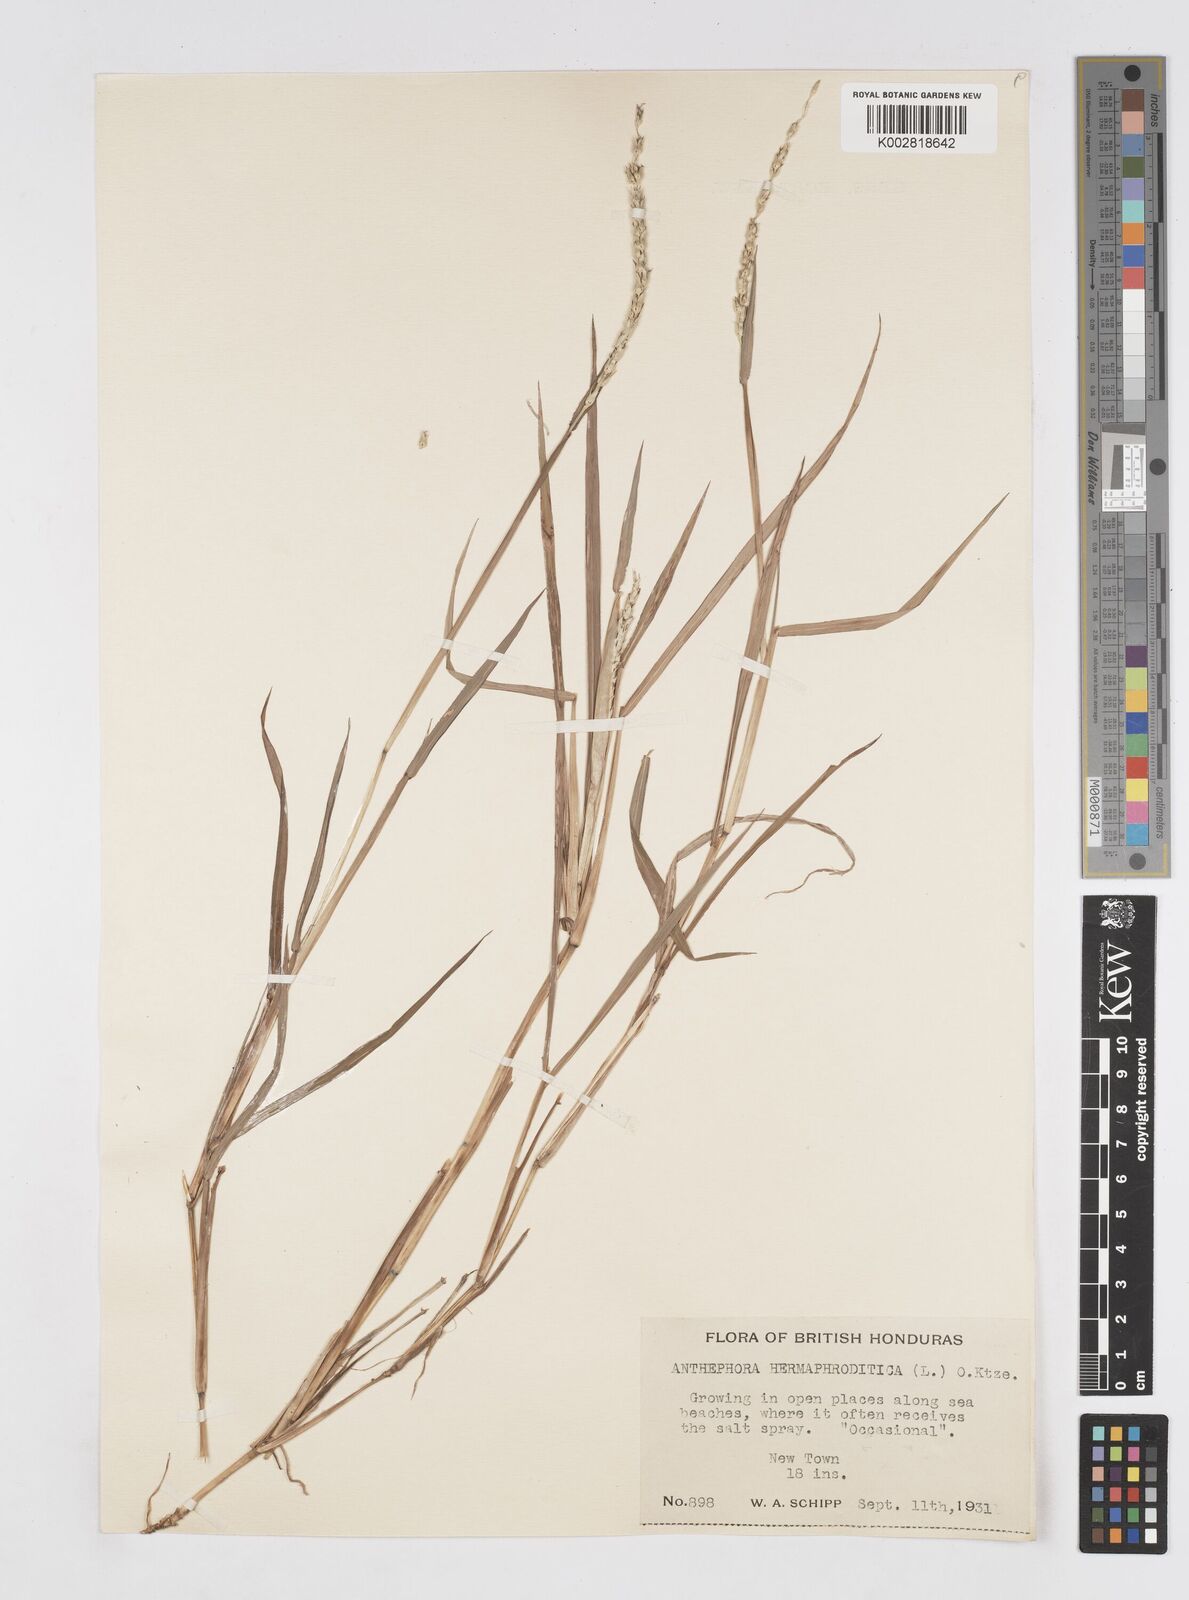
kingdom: Plantae
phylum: Tracheophyta
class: Liliopsida
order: Poales
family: Poaceae
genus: Anthephora
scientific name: Anthephora hermaphrodita
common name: Oldfield grass
